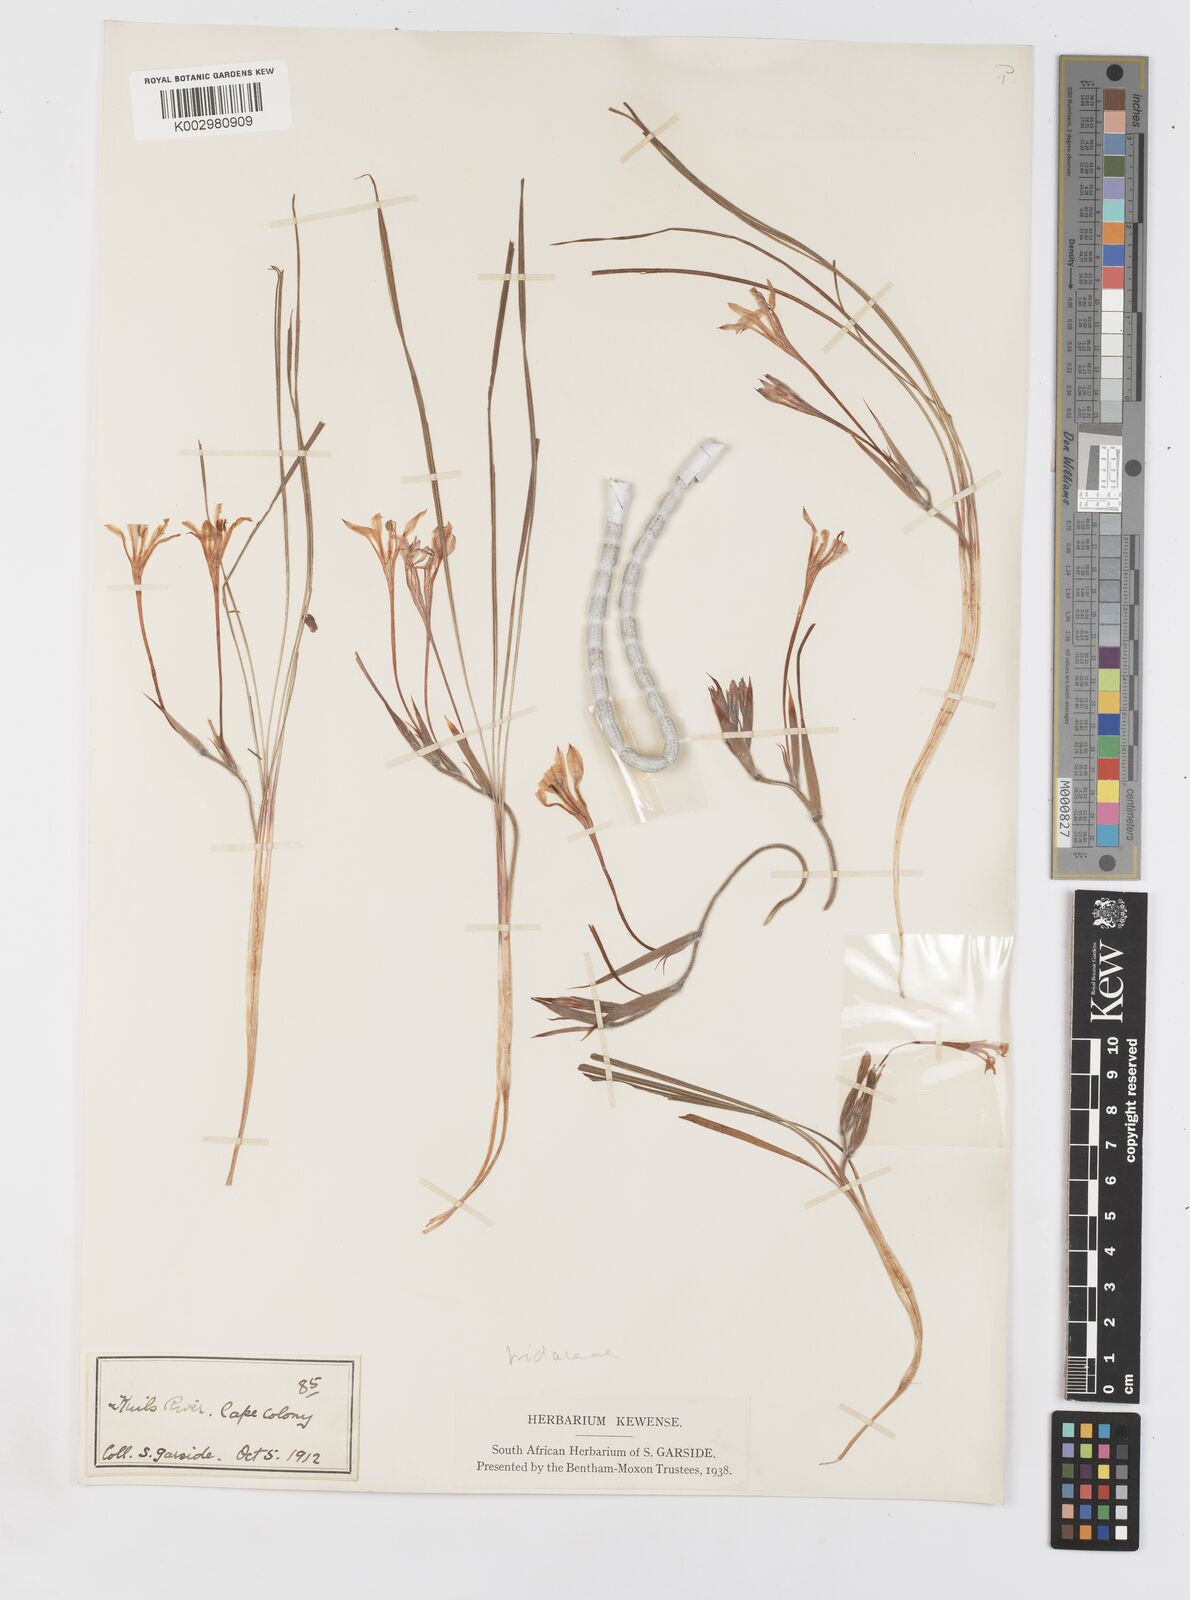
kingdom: Plantae
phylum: Tracheophyta
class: Liliopsida
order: Asparagales
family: Iridaceae
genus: Babiana
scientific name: Babiana tubiflora
